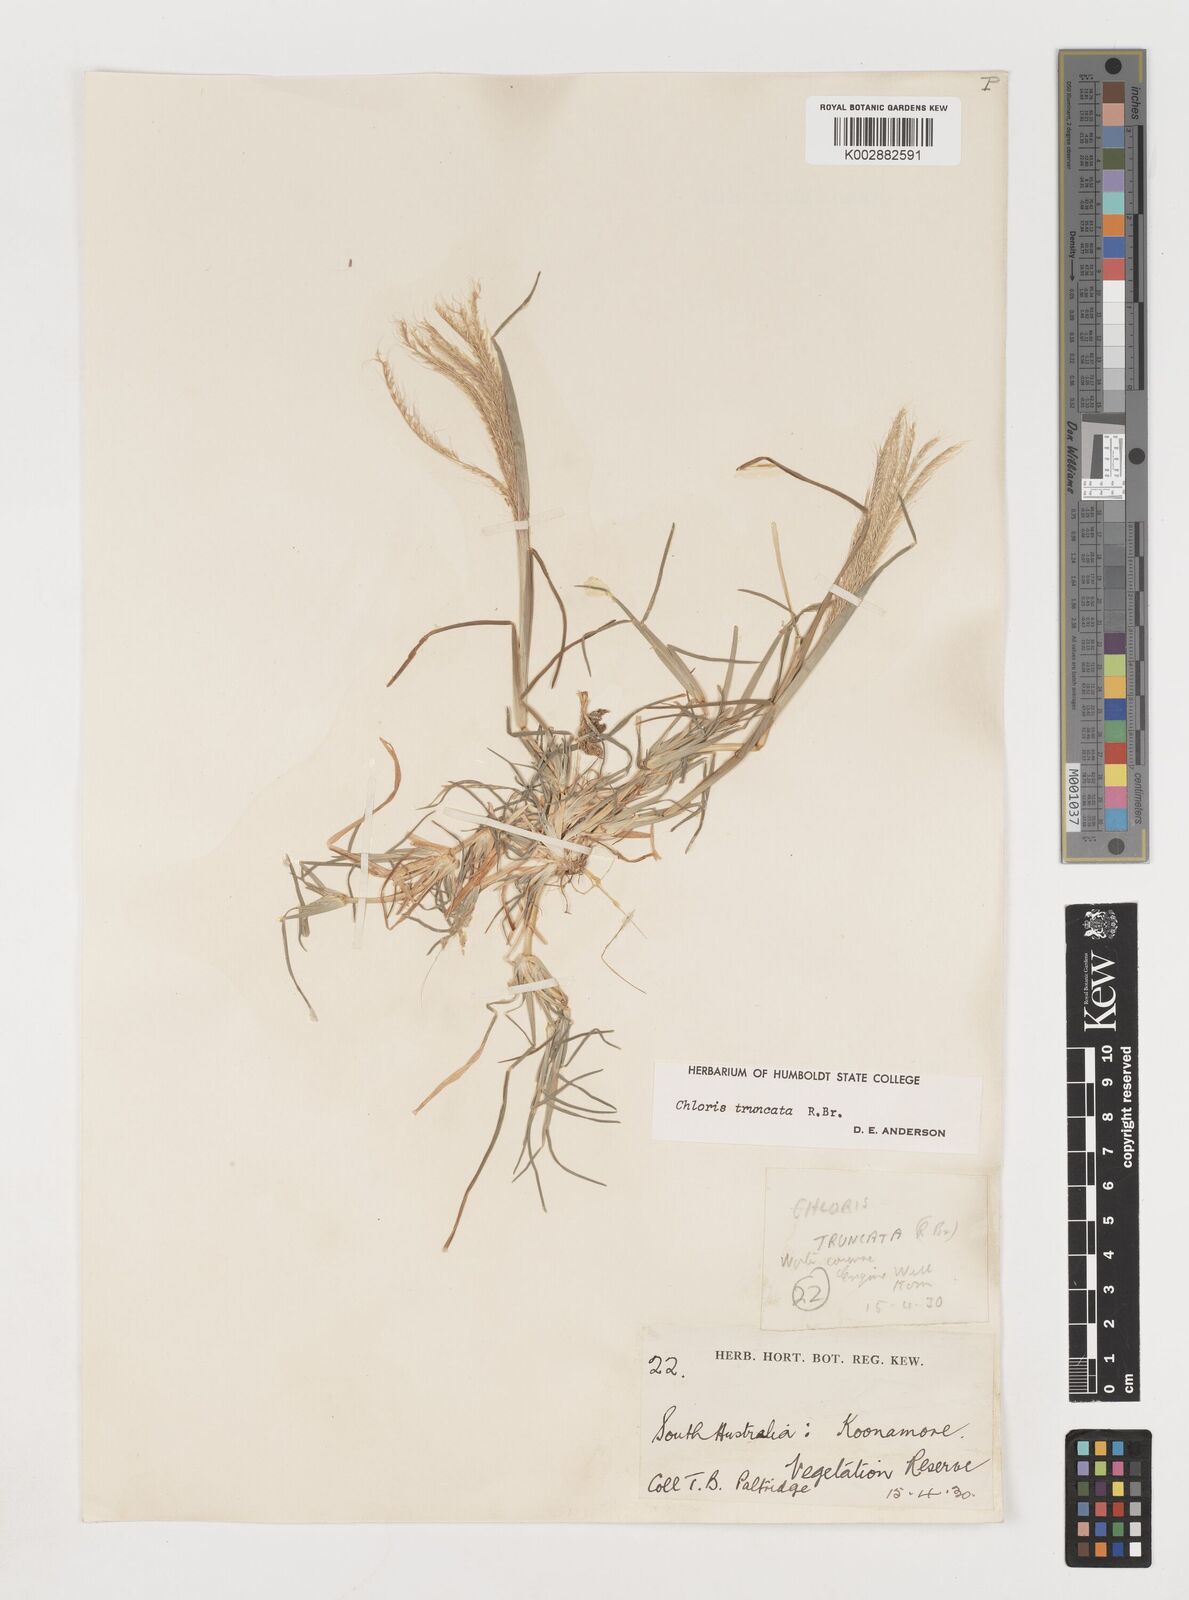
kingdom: Plantae
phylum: Tracheophyta
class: Liliopsida
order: Poales
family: Poaceae
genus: Chloris
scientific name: Chloris truncata
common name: Windmill-grass
